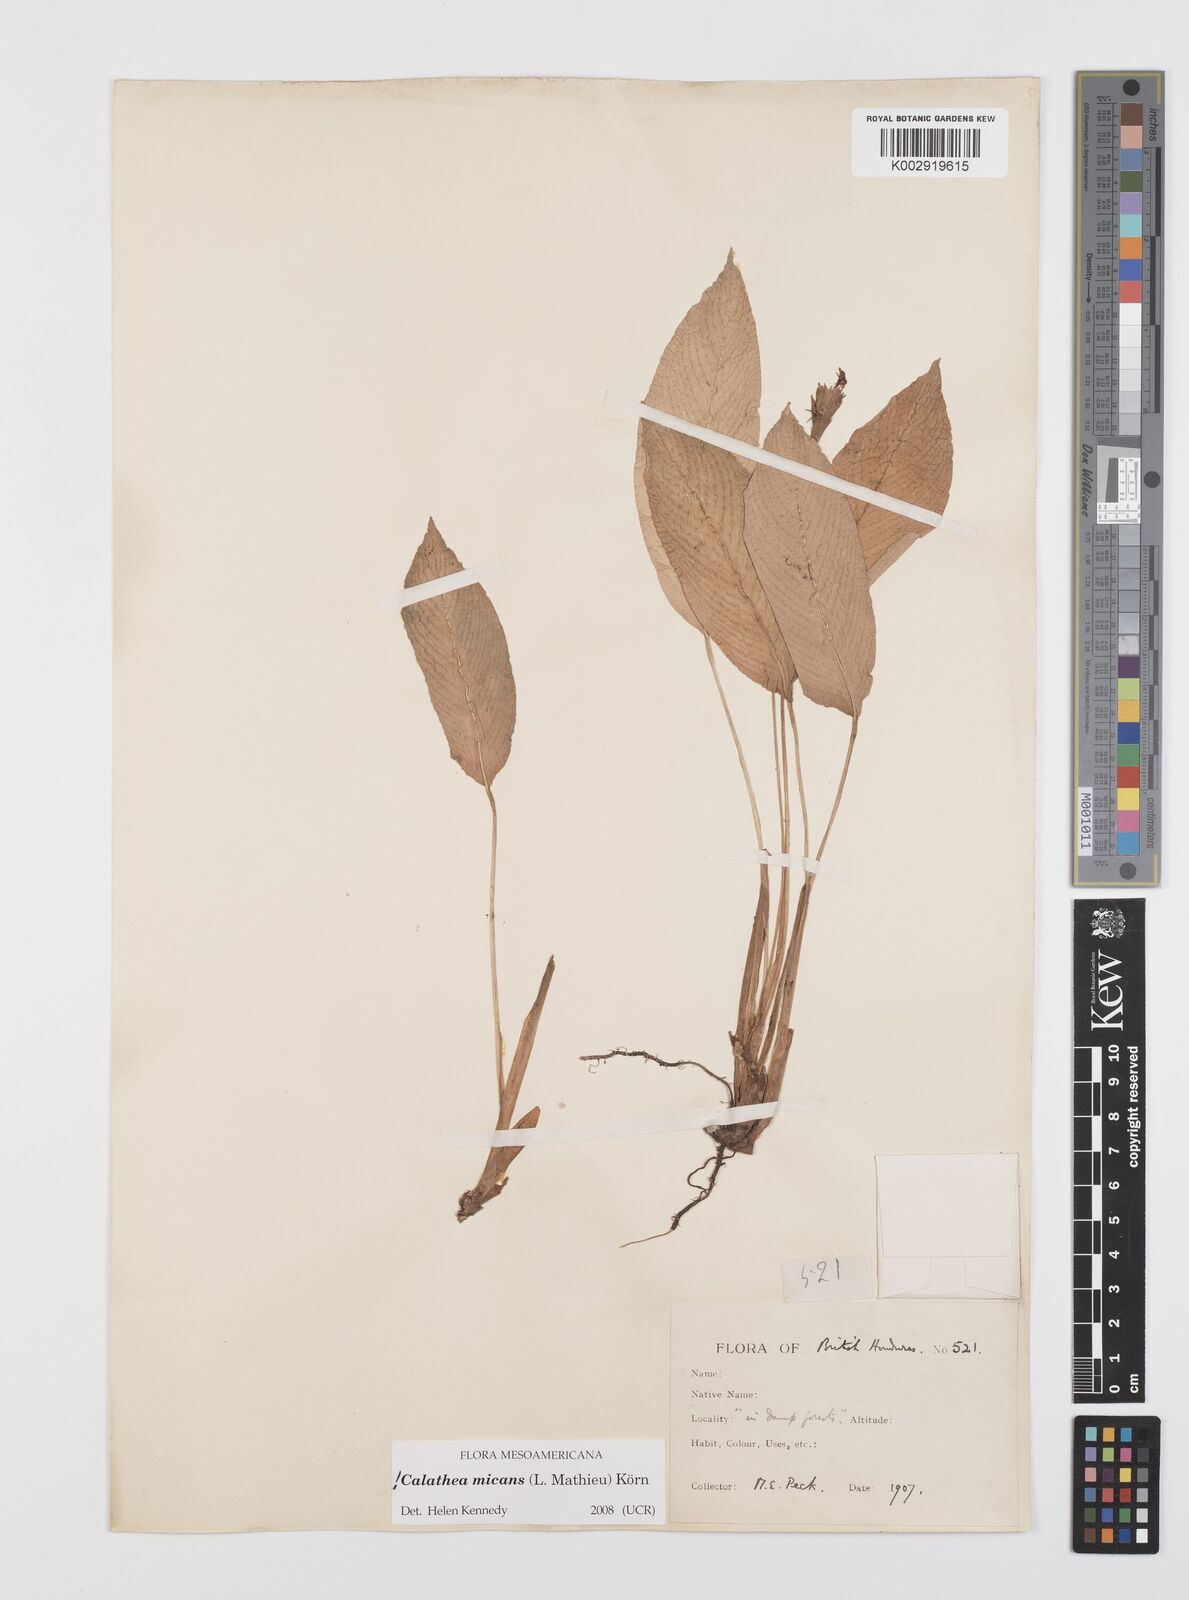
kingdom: Plantae
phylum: Tracheophyta
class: Liliopsida
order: Zingiberales
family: Marantaceae
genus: Goeppertia
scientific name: Goeppertia micans
